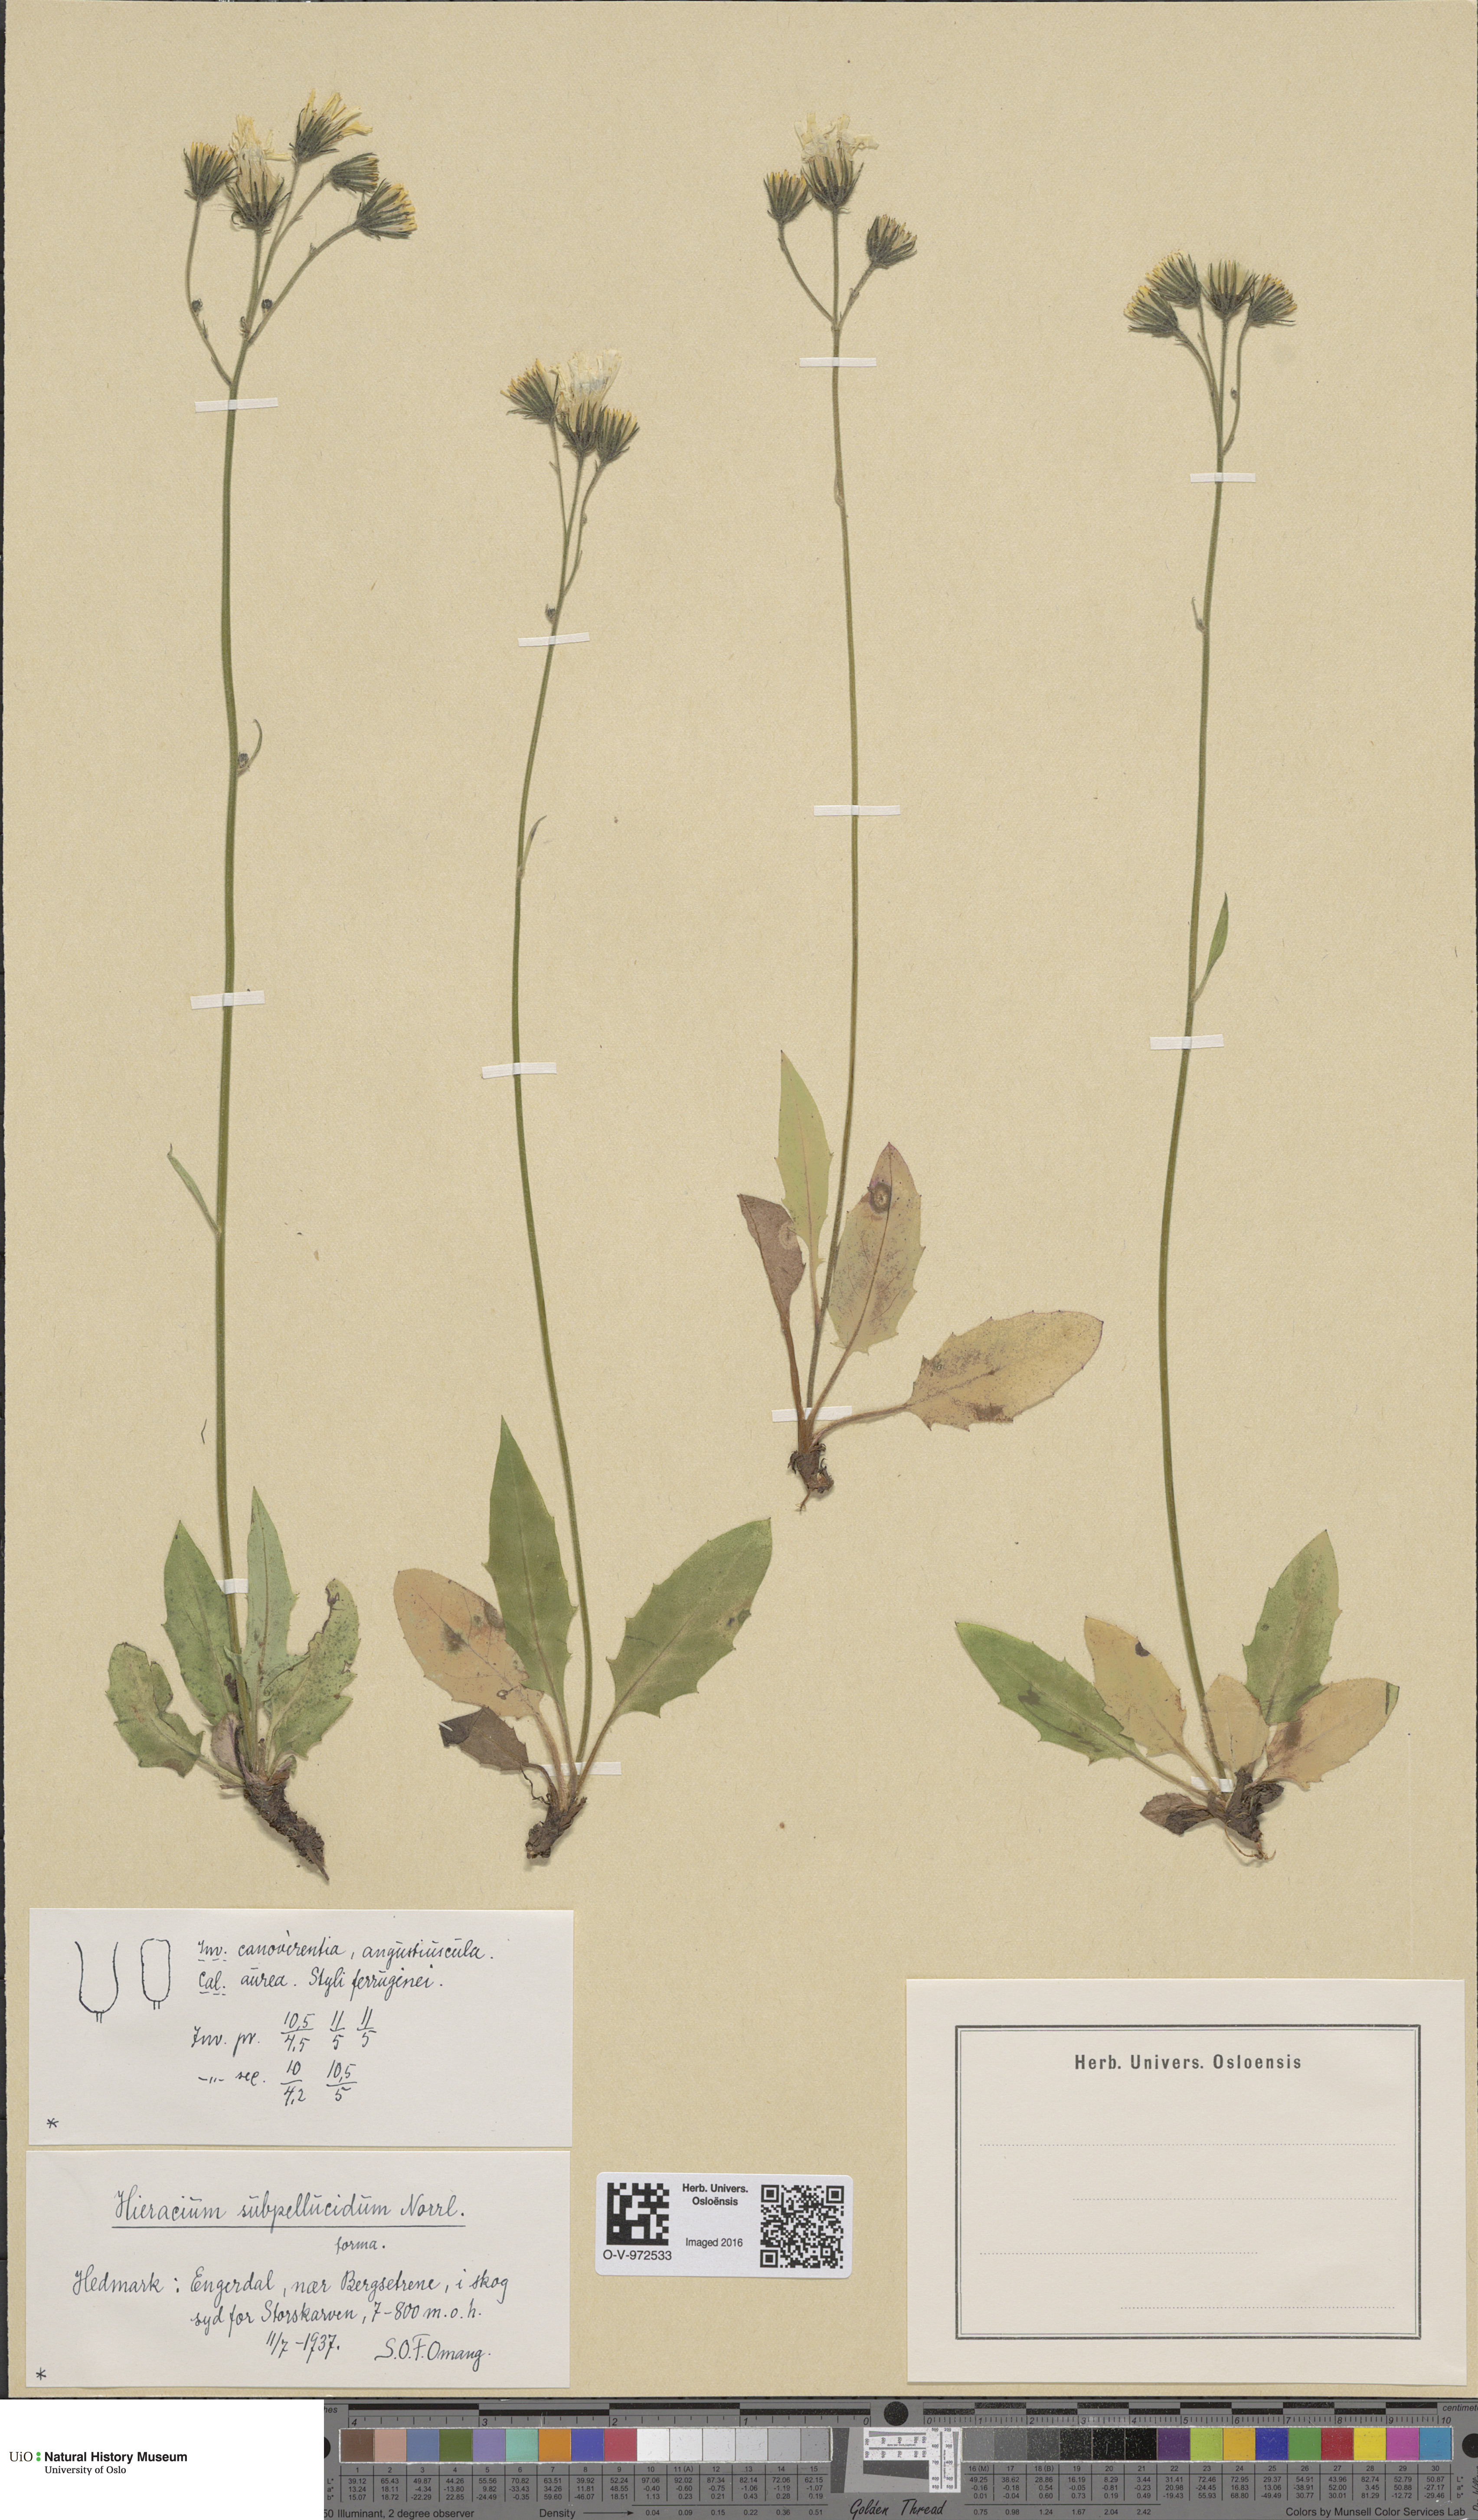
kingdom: Plantae
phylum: Tracheophyta
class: Magnoliopsida
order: Asterales
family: Asteraceae
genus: Hieracium
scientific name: Hieracium subpellucidum
